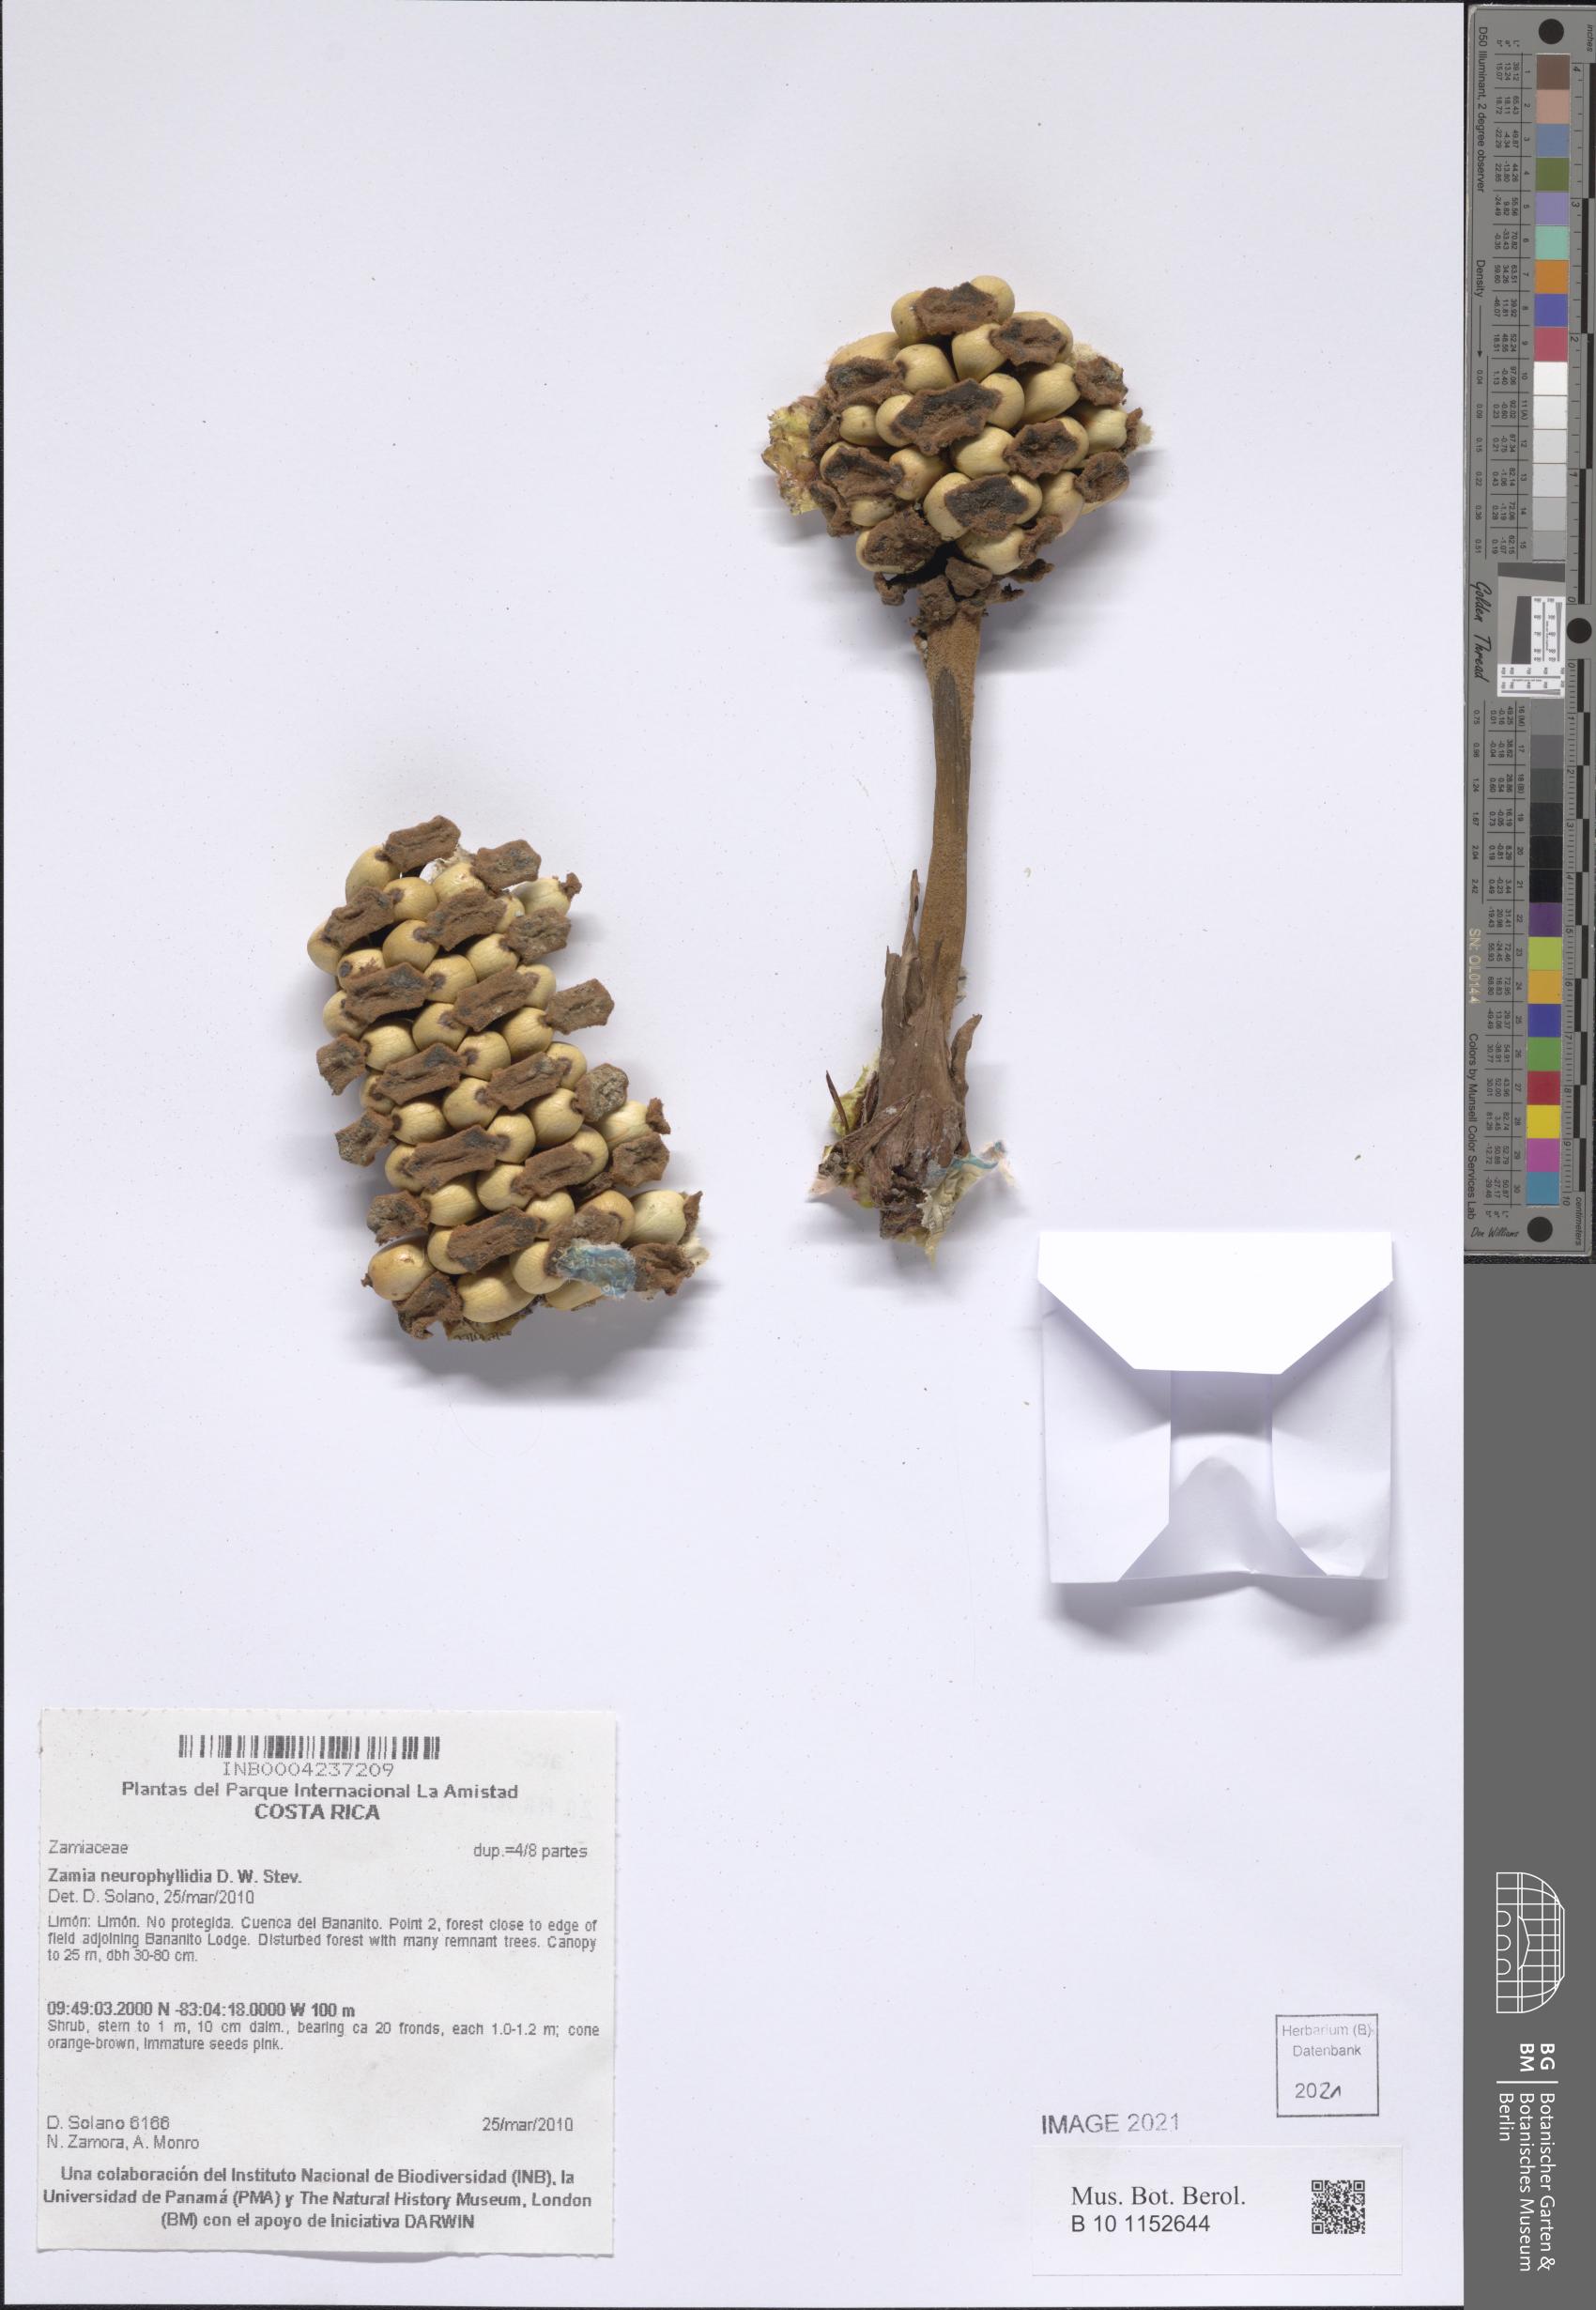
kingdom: Plantae
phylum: Tracheophyta
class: Cycadopsida
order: Cycadales
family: Zamiaceae
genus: Zamia
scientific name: Zamia neurophyllidia
